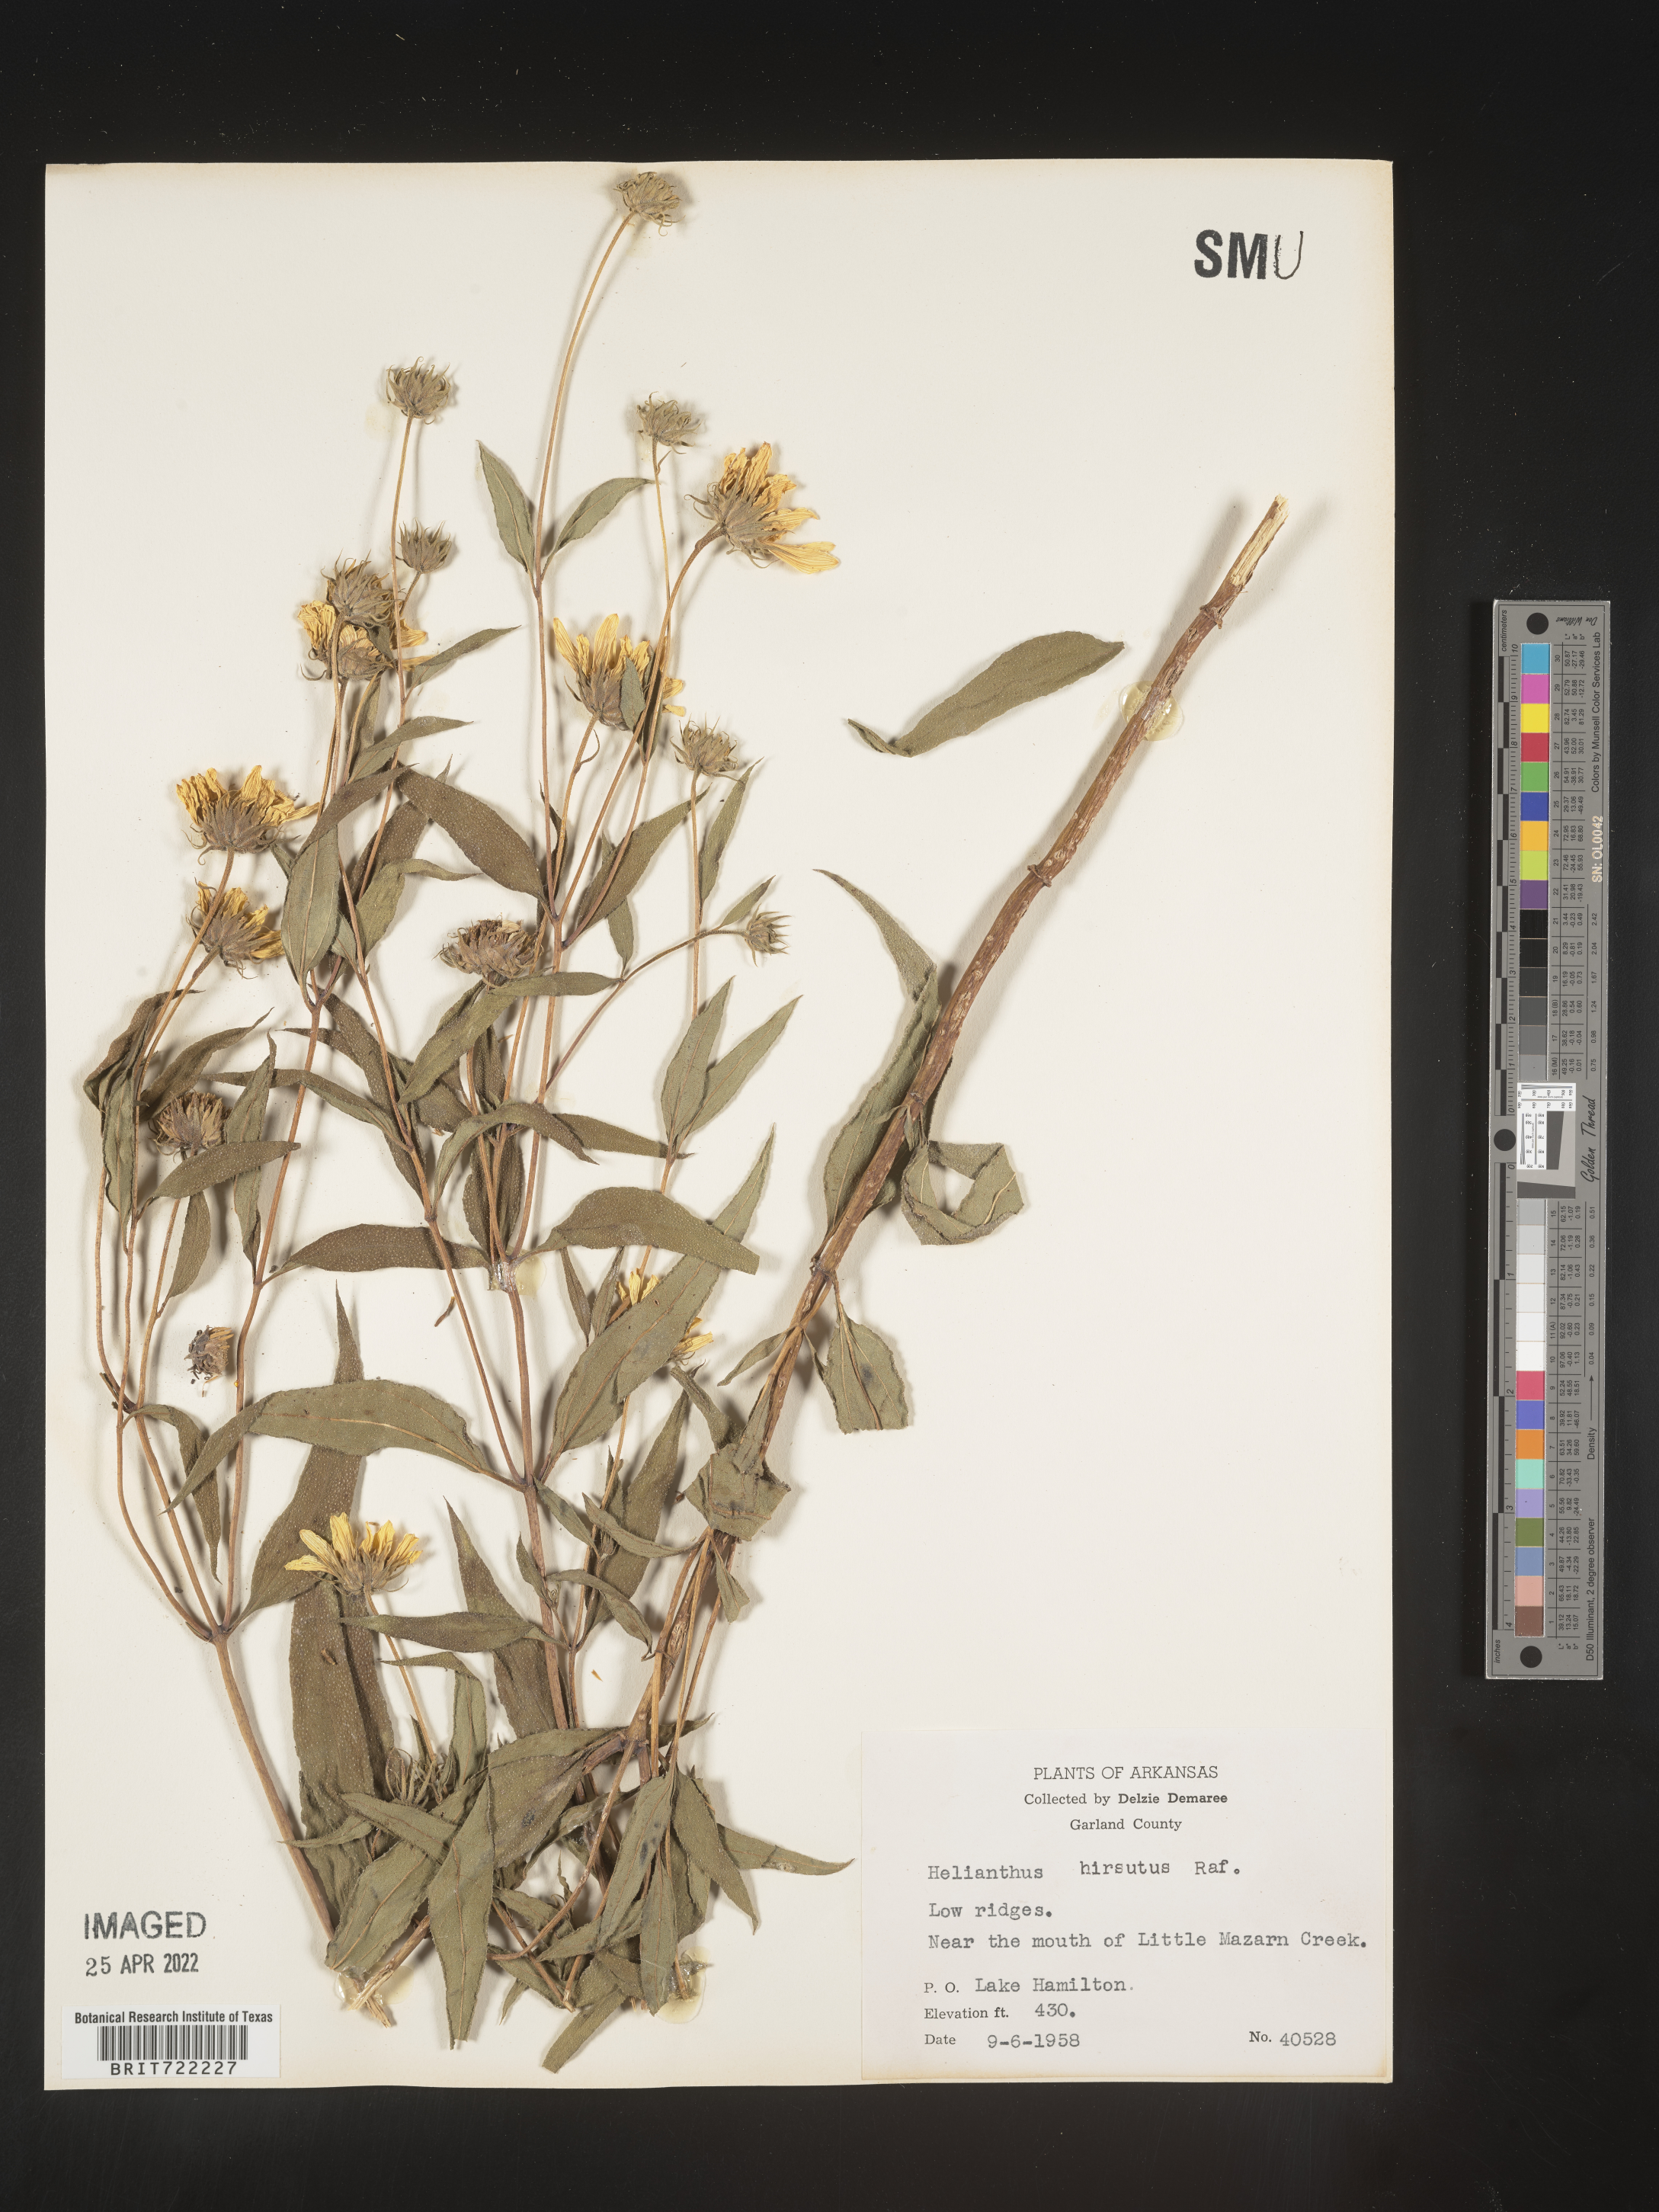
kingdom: Plantae
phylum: Tracheophyta
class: Magnoliopsida
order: Asterales
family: Asteraceae
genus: Helianthus
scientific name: Helianthus hirsutus
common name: Hairy sunflower
